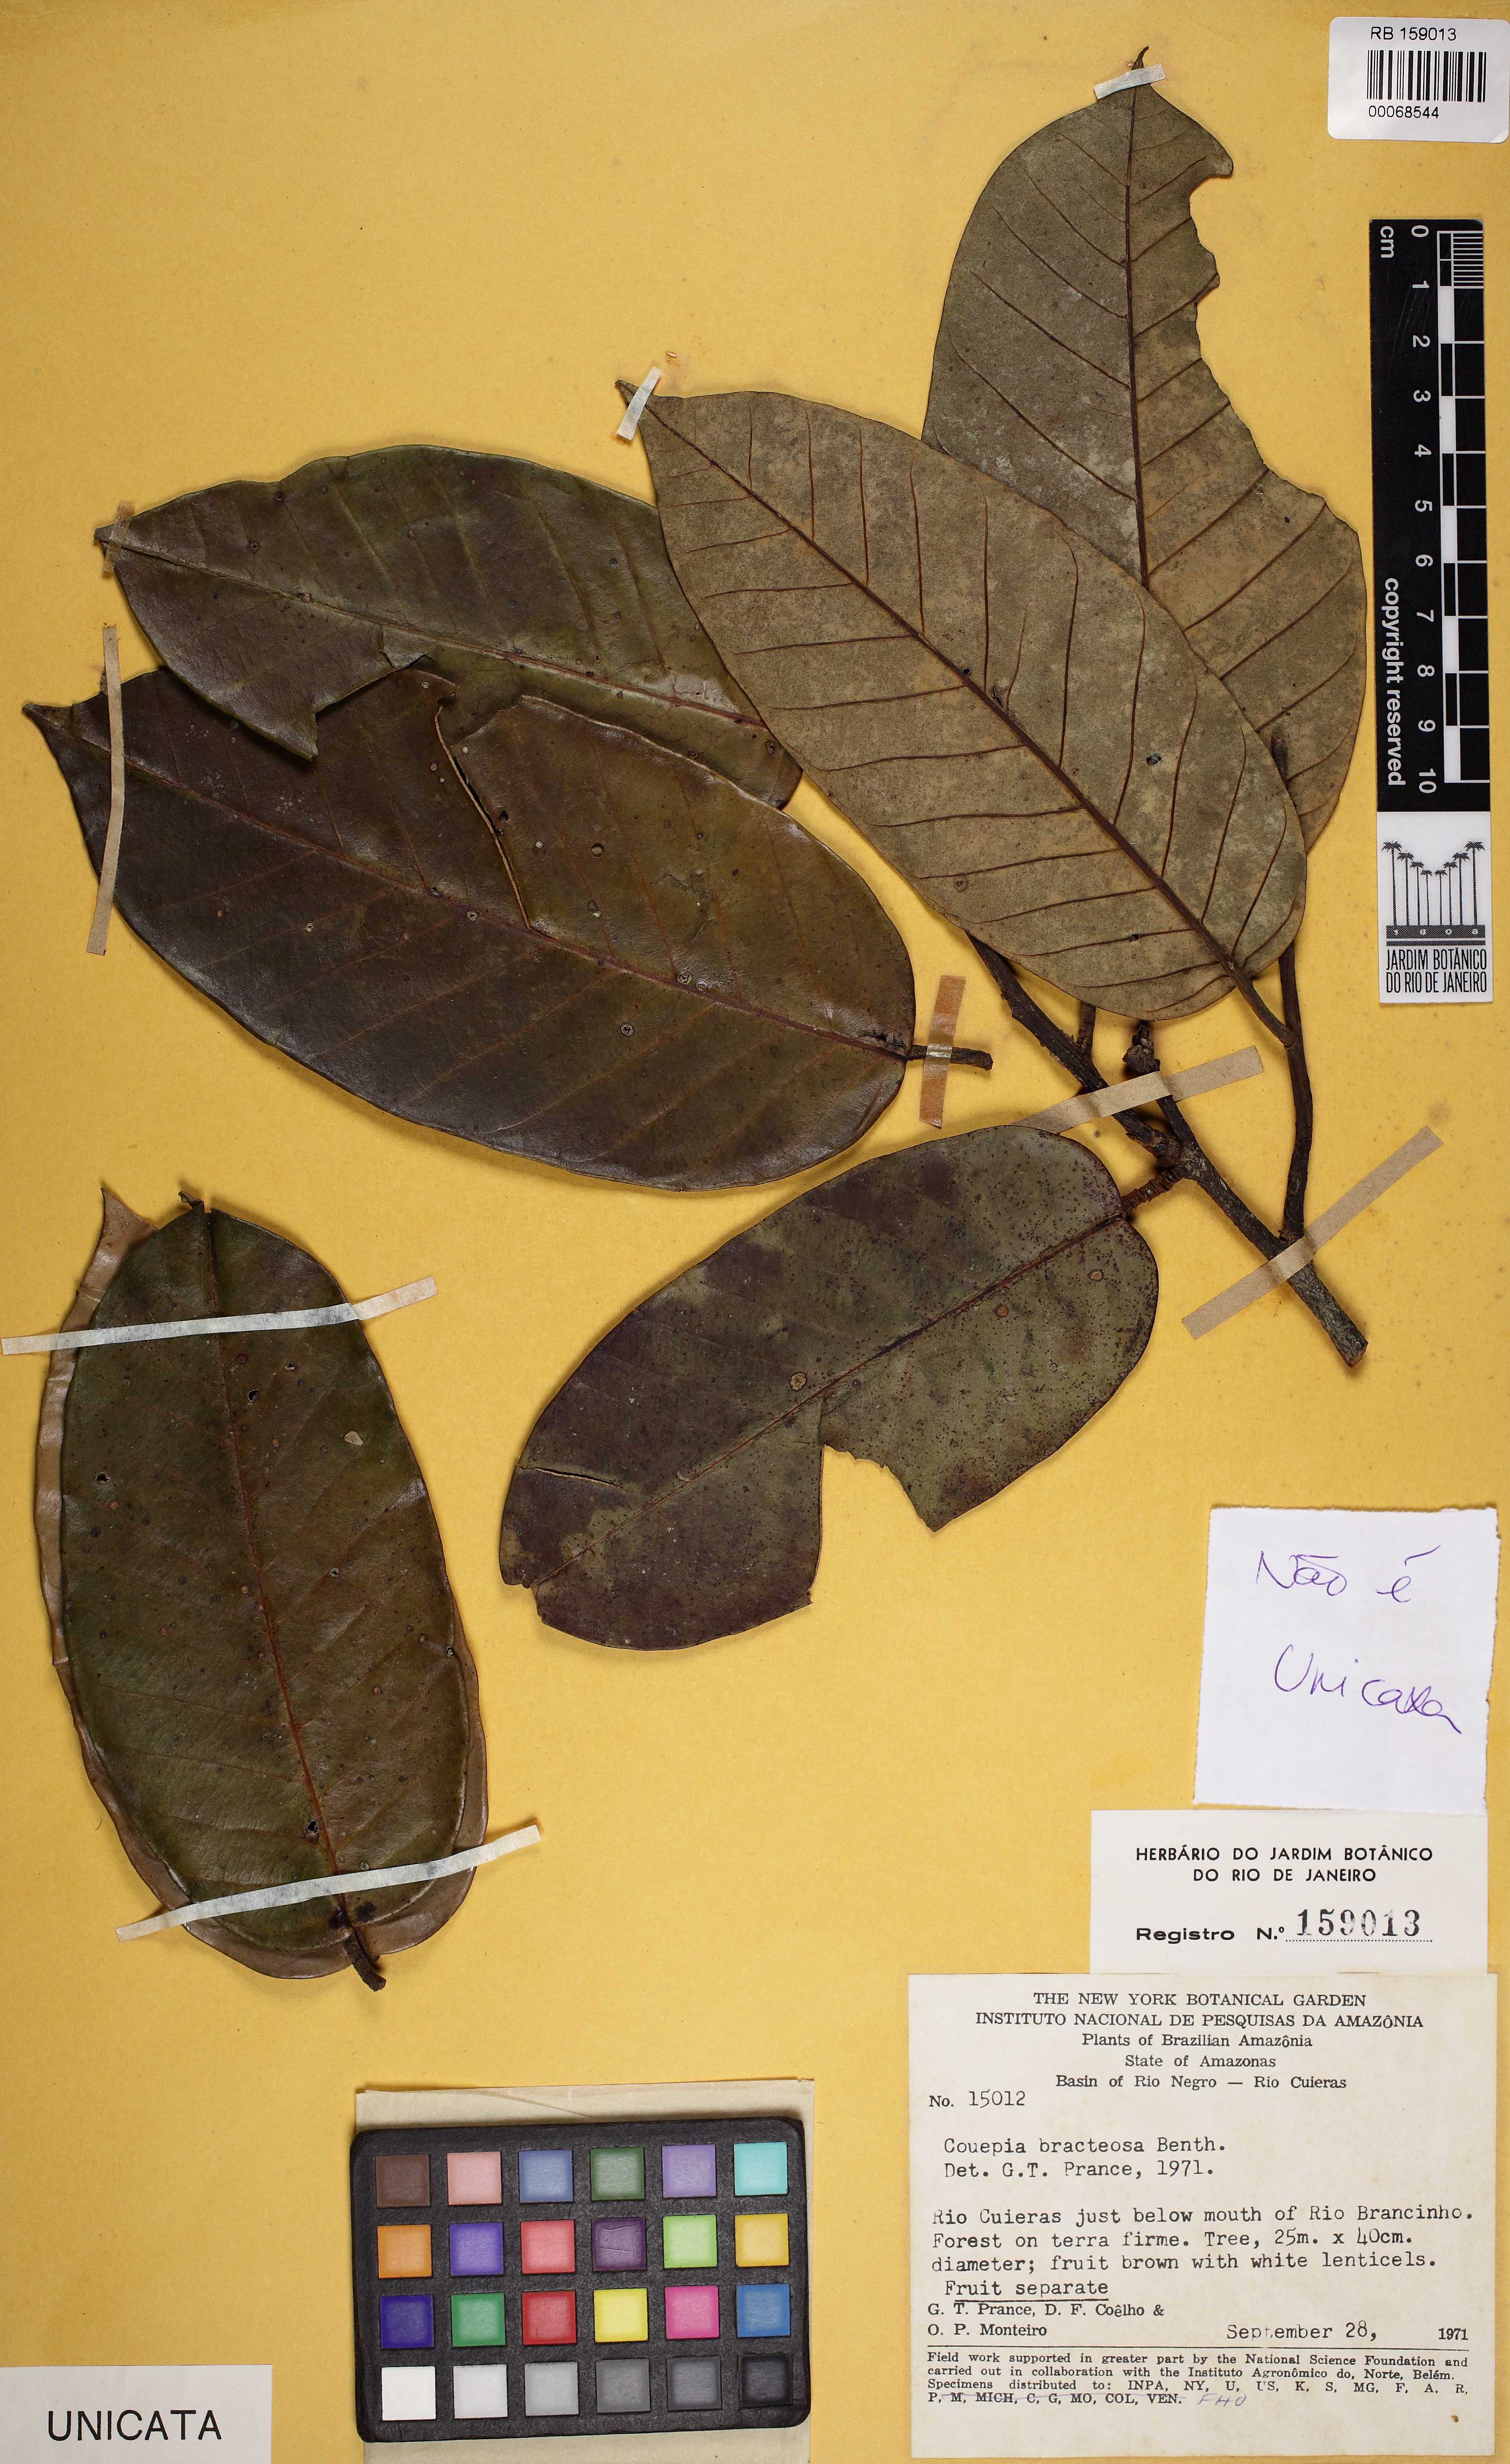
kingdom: Plantae
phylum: Tracheophyta
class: Magnoliopsida
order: Malpighiales
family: Chrysobalanaceae
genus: Couepia
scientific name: Couepia bracteosa
